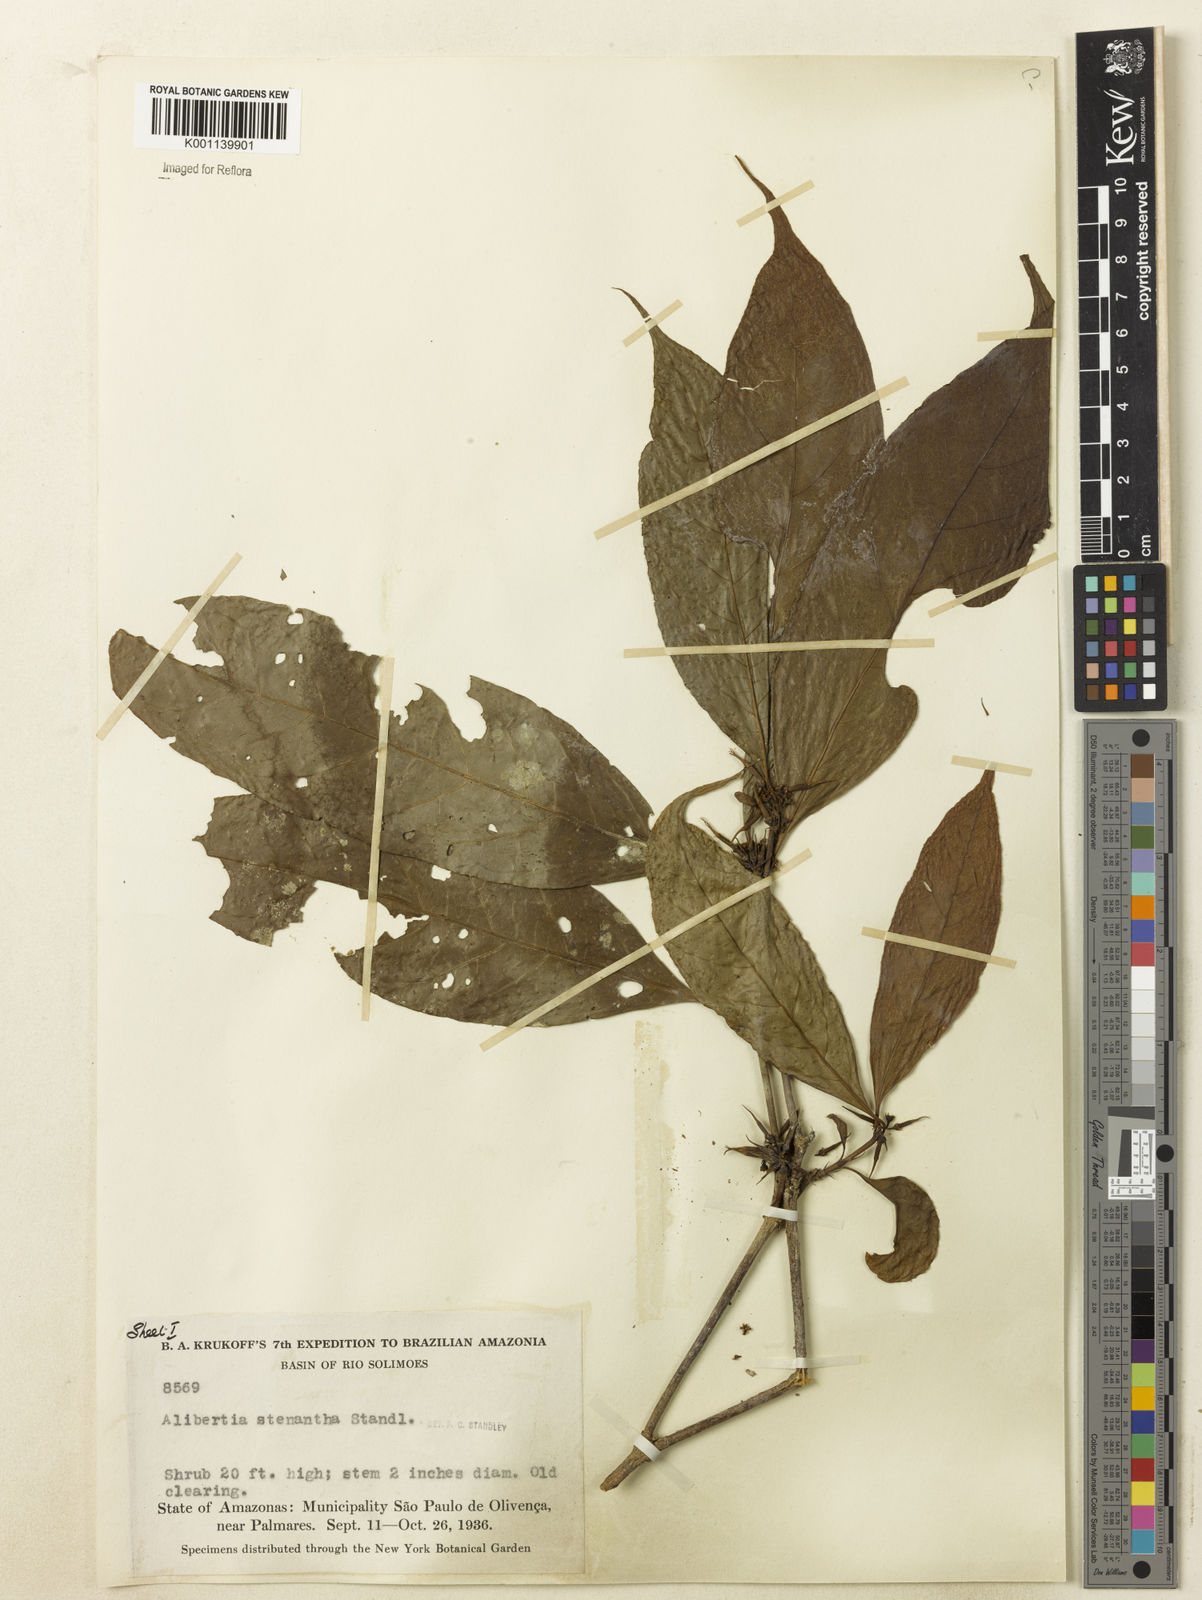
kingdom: Plantae
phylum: Tracheophyta
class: Magnoliopsida
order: Gentianales
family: Rubiaceae
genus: Alibertia
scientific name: Alibertia bertierifolia
